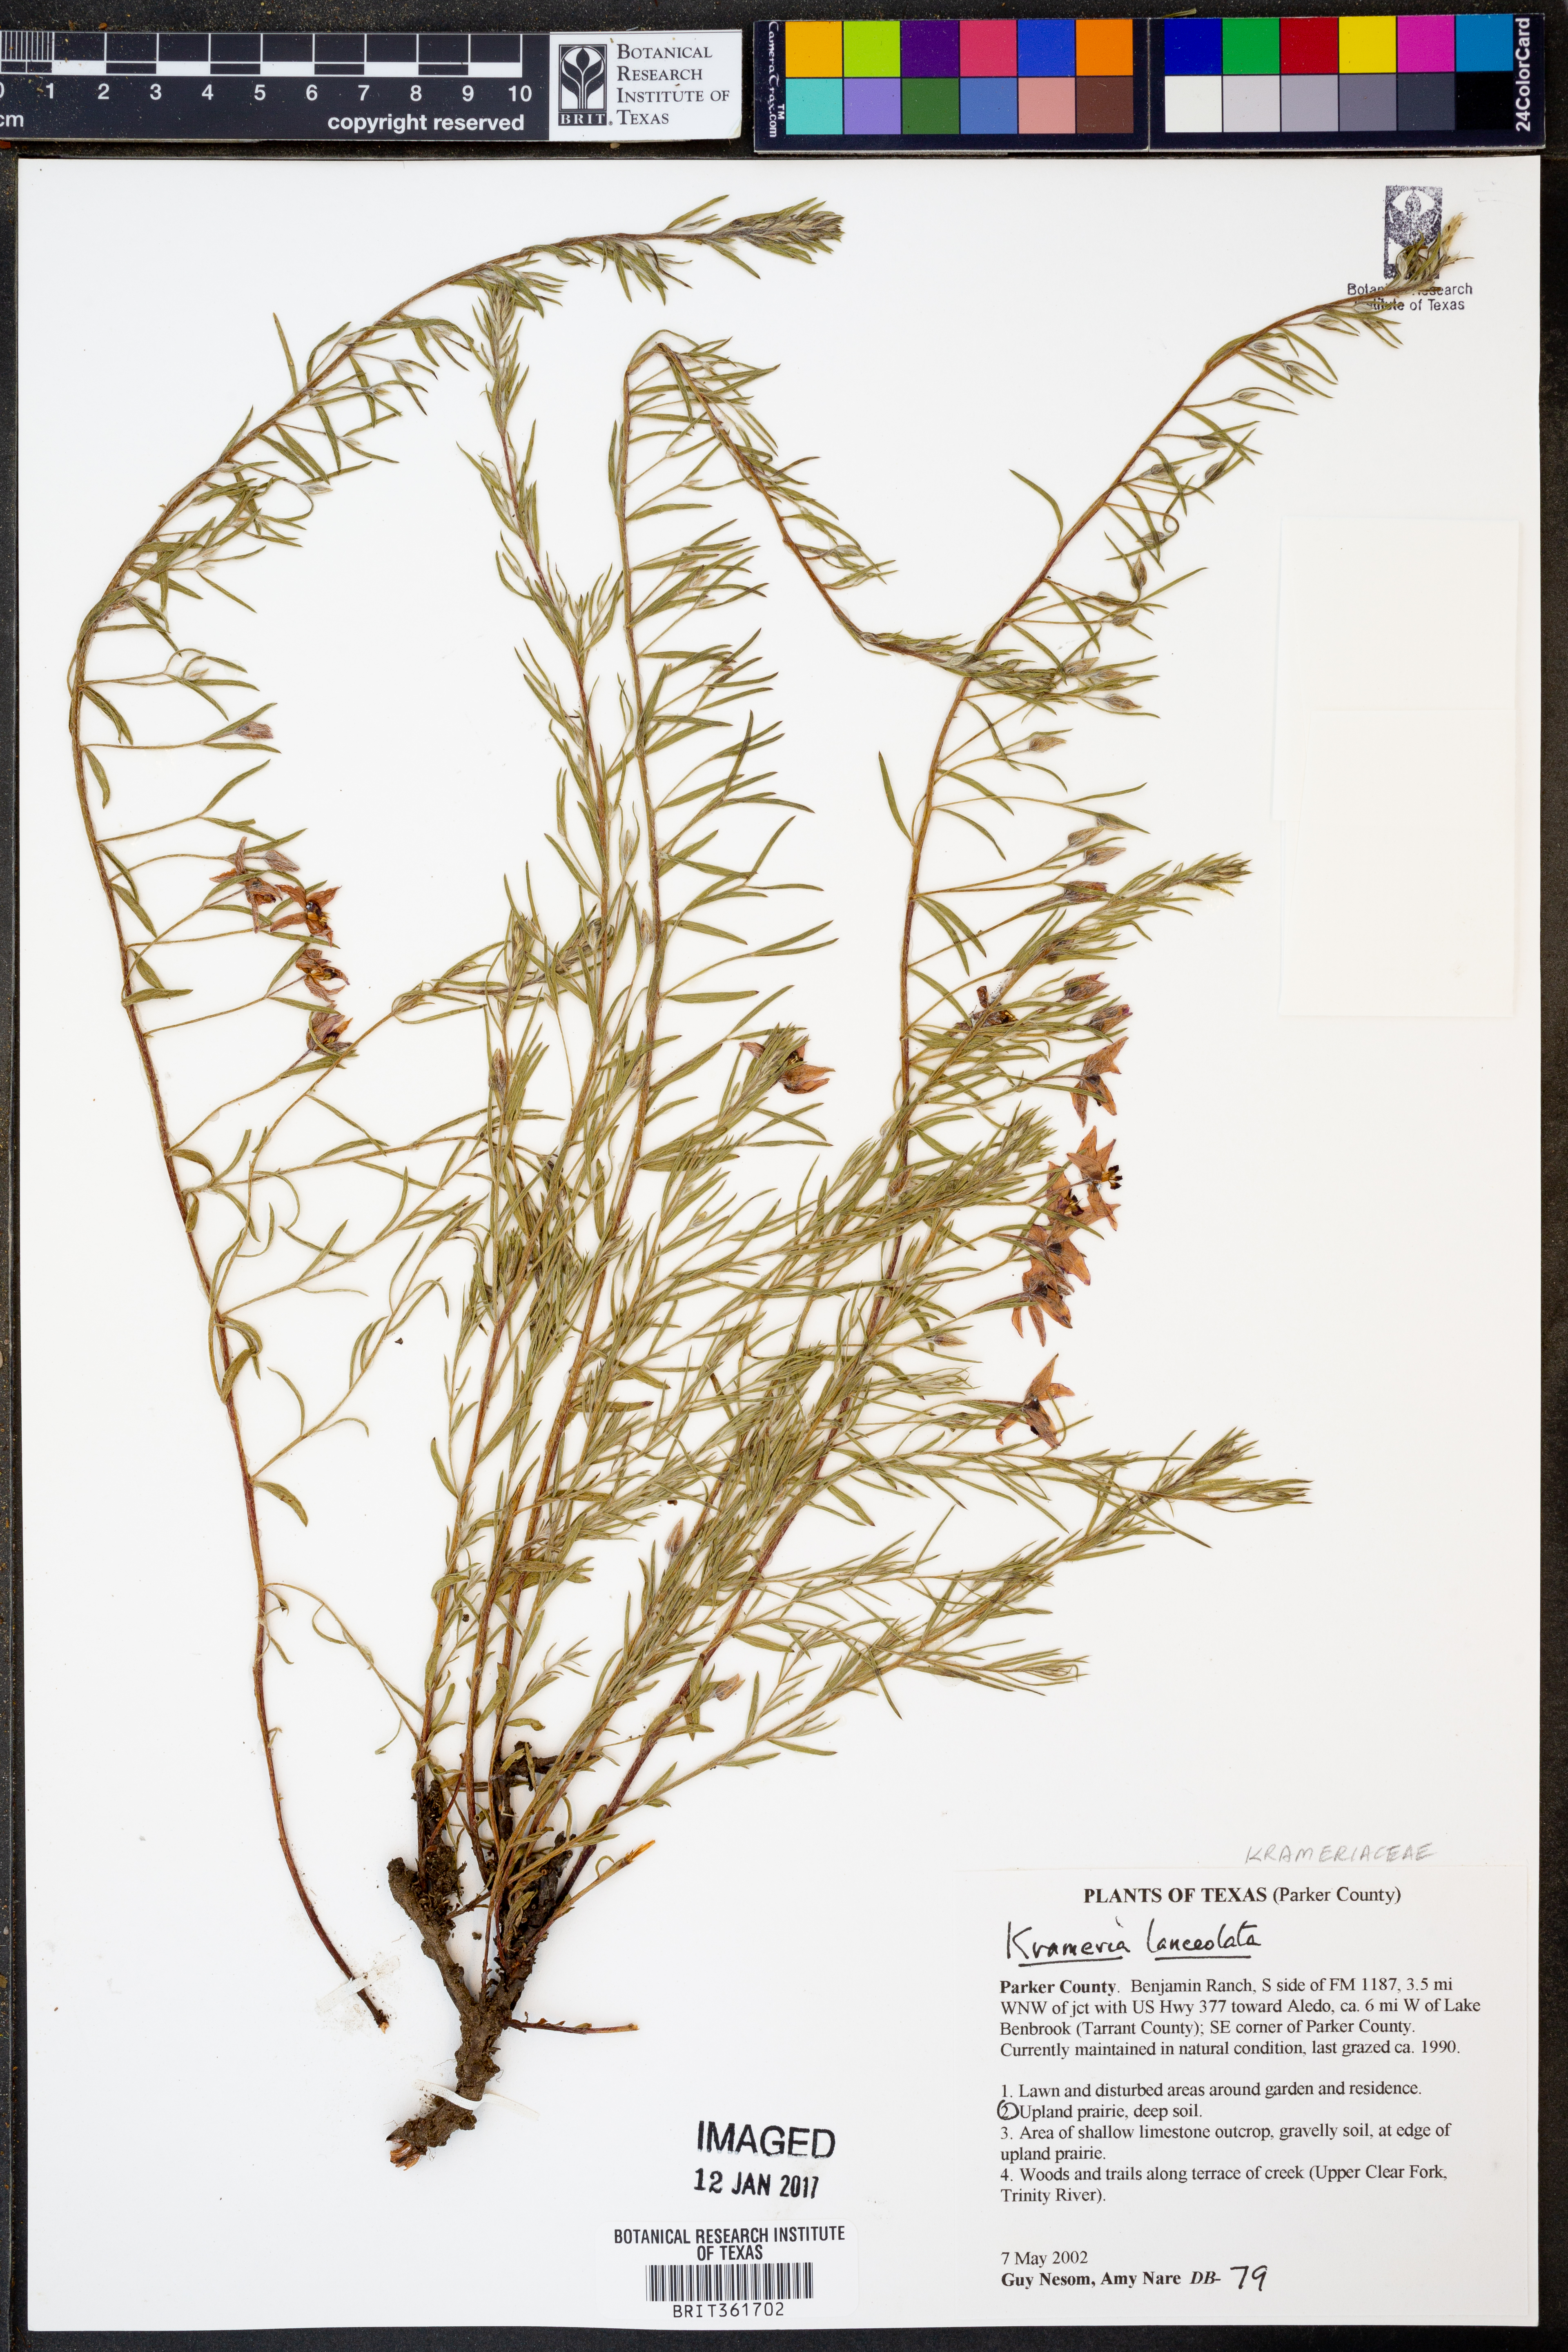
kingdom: Plantae
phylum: Tracheophyta
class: Magnoliopsida
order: Zygophyllales
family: Krameriaceae
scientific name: Krameriaceae
